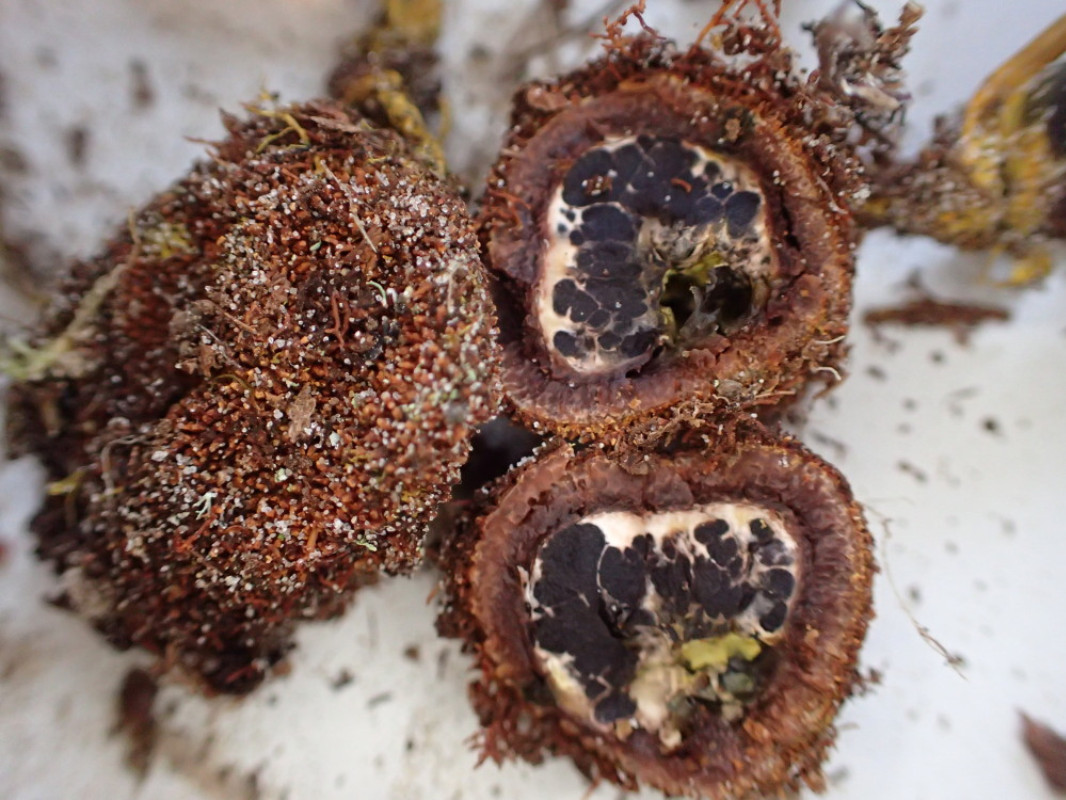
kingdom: Fungi
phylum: Ascomycota
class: Eurotiomycetes
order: Eurotiales
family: Elaphomycetaceae
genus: Elaphomyces
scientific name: Elaphomyces muricatus
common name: vortet hjortetrøffel
